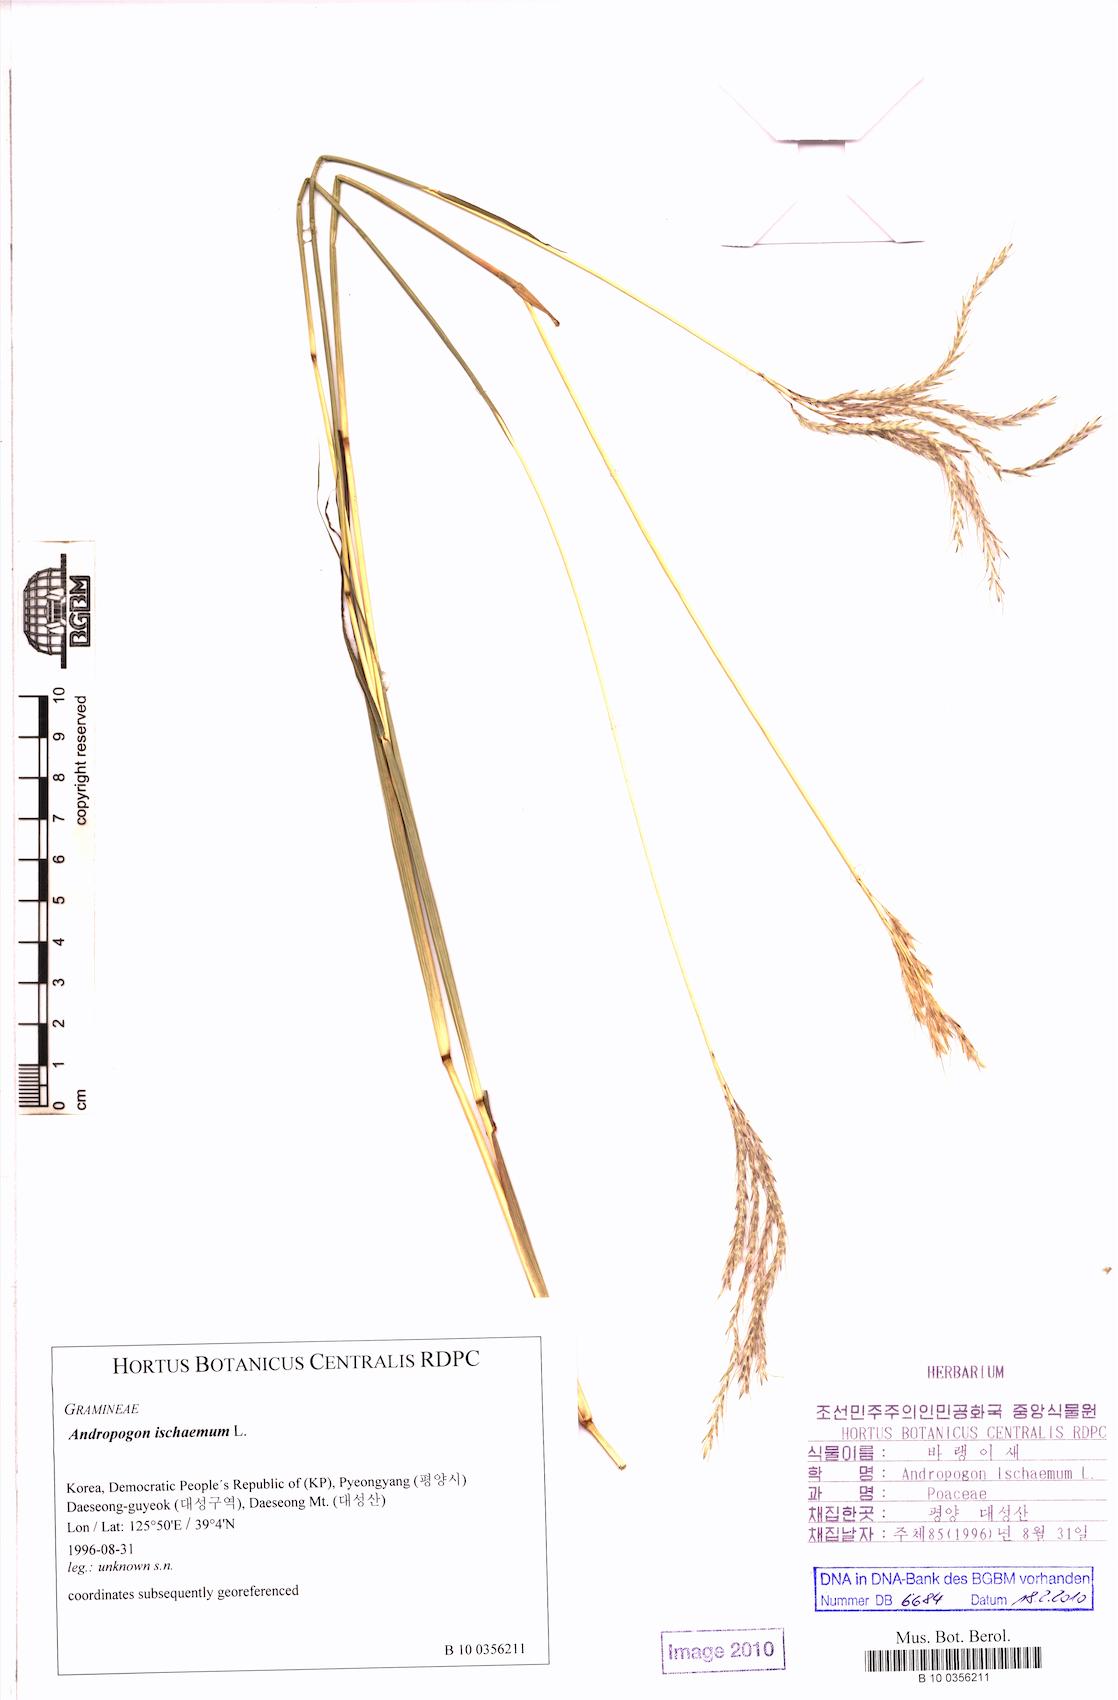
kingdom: Plantae
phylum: Tracheophyta
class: Liliopsida
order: Poales
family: Poaceae
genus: Bothriochloa
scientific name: Bothriochloa ischaemum
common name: Yellow bluestem
